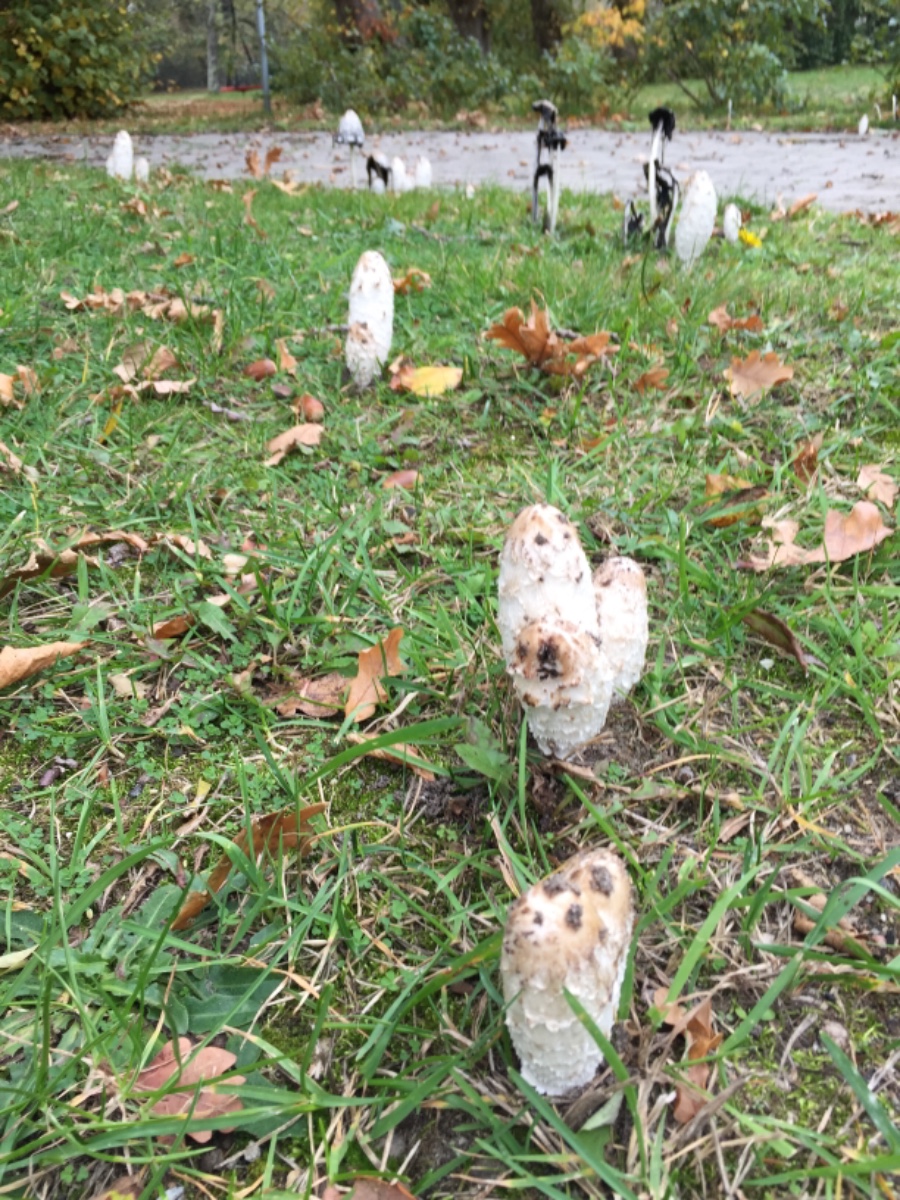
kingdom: Fungi
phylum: Basidiomycota
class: Agaricomycetes
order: Agaricales
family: Agaricaceae
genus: Coprinus
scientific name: Coprinus comatus
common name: stor parykhat
